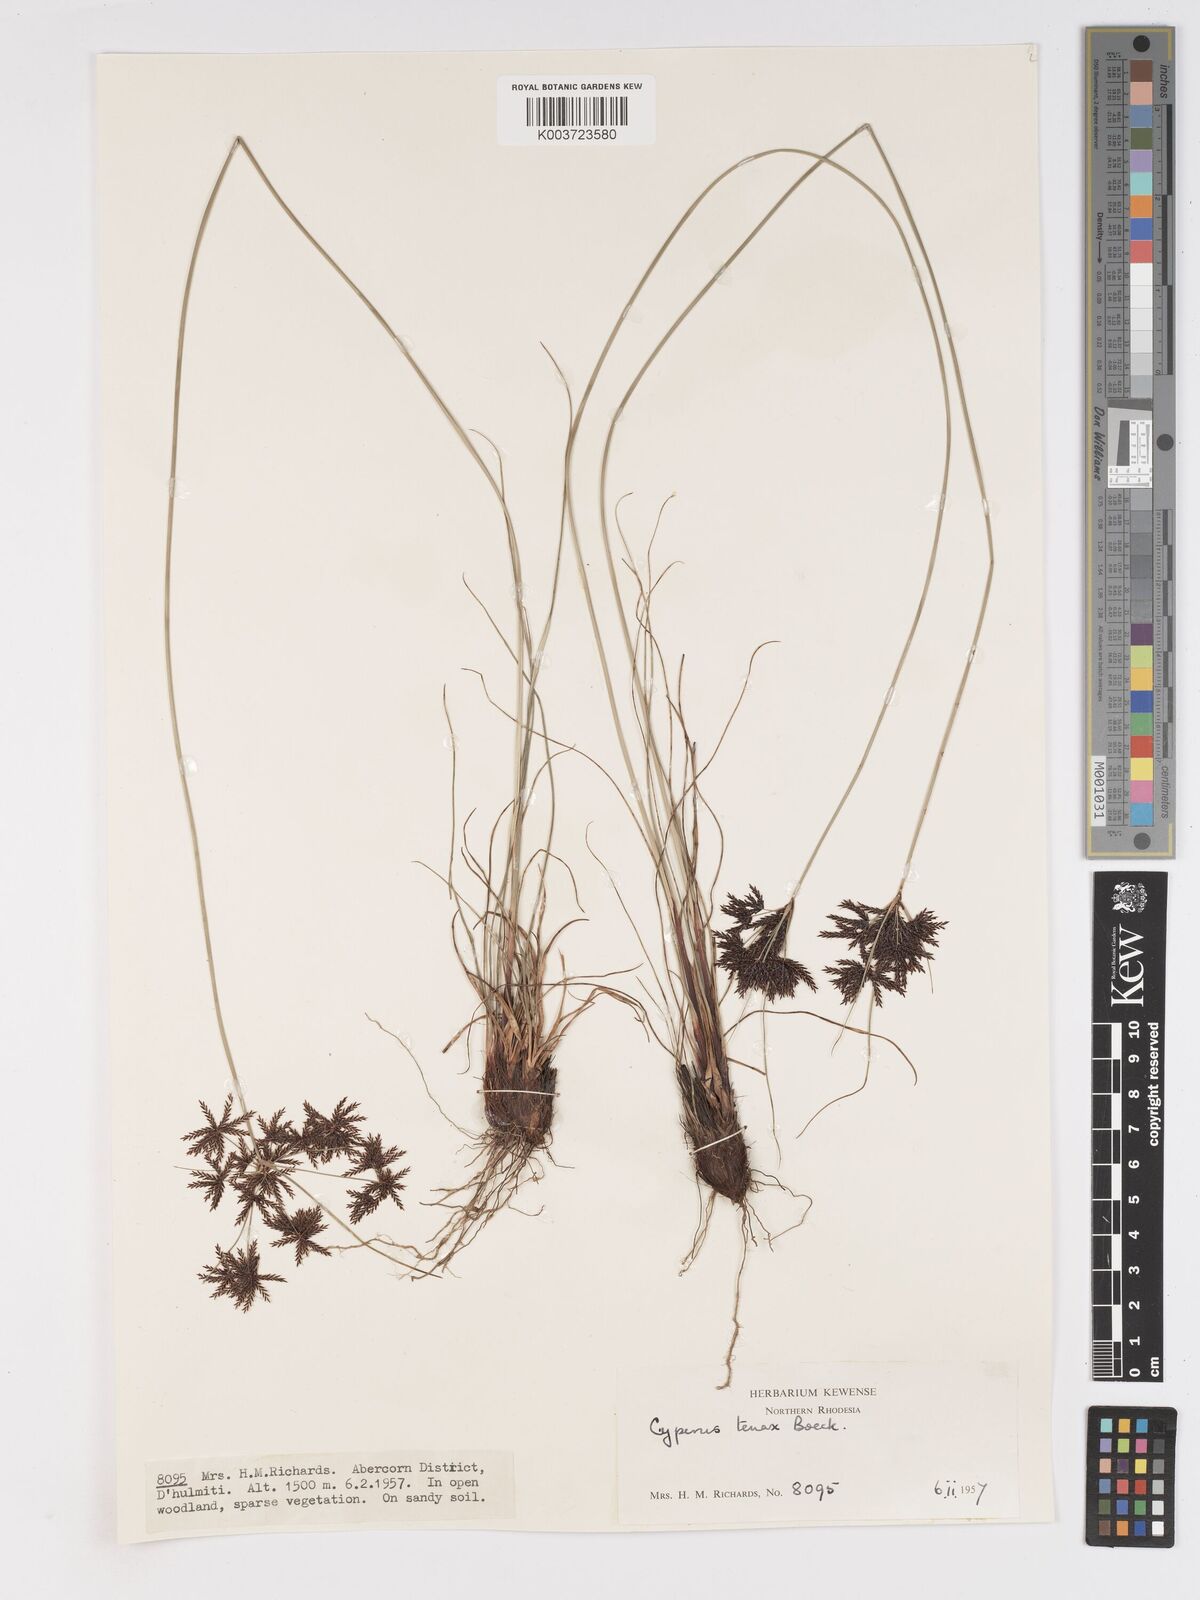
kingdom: Plantae
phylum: Tracheophyta
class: Liliopsida
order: Poales
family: Cyperaceae
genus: Cyperus
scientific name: Cyperus tenax
